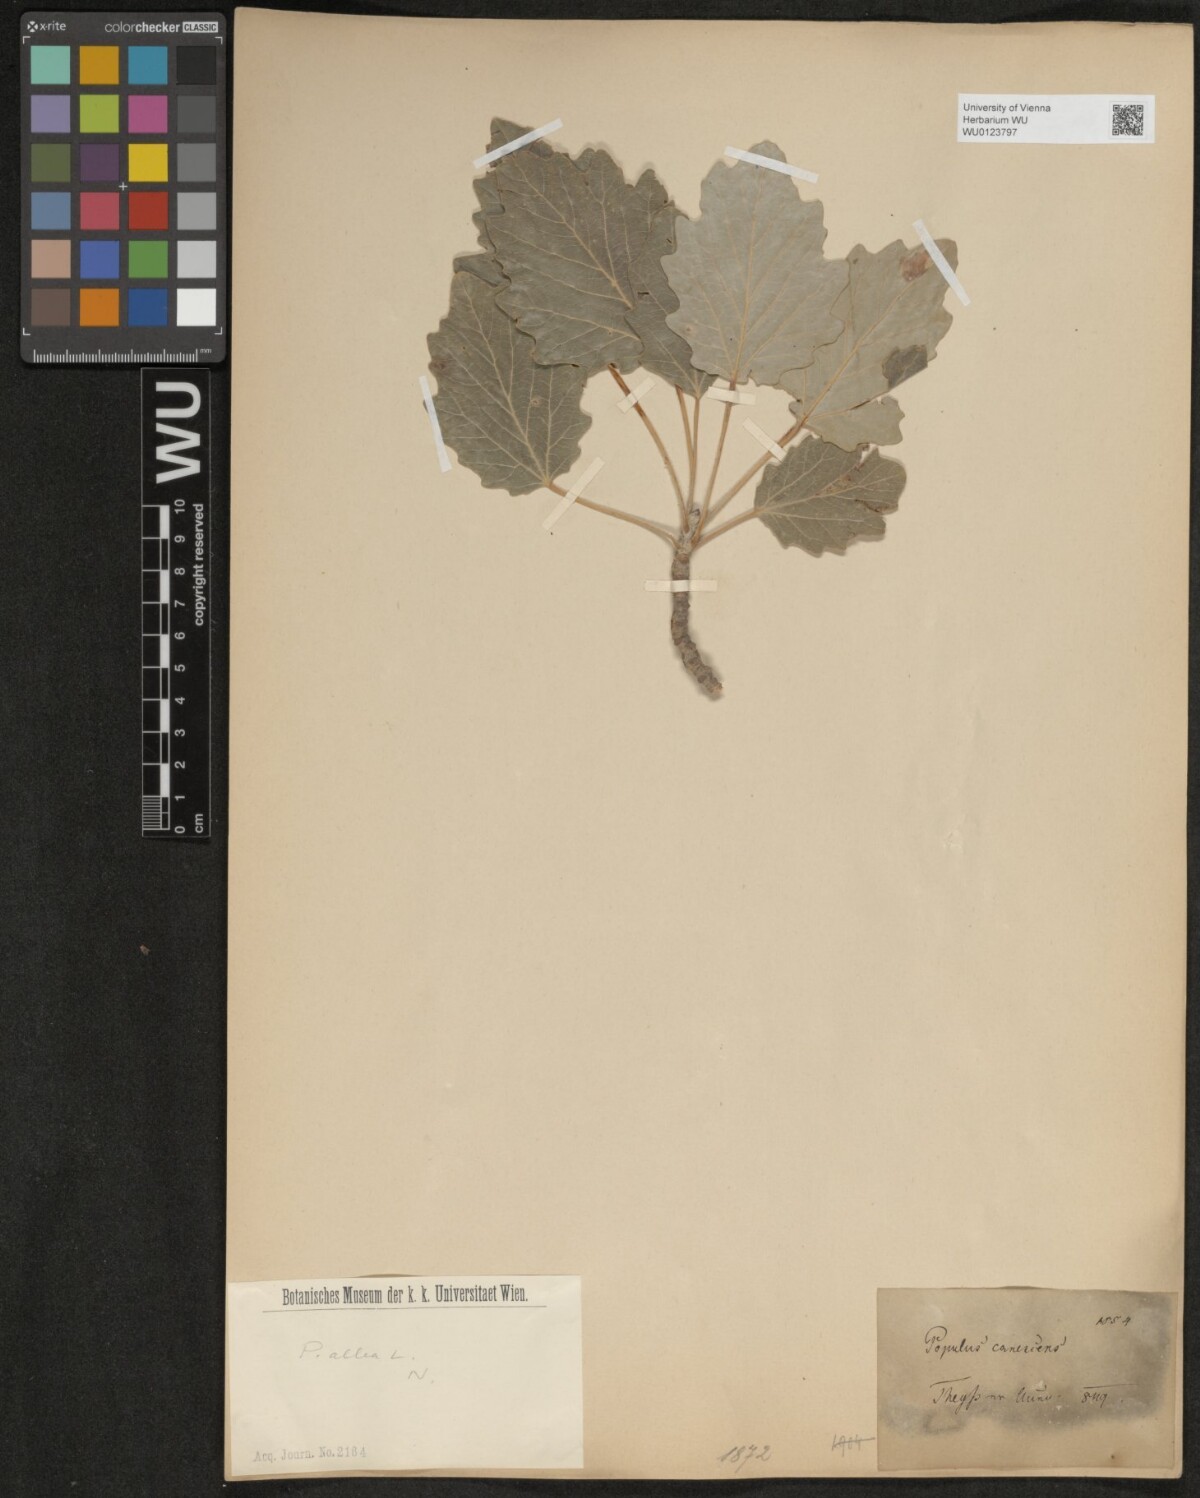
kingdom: Plantae
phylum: Tracheophyta
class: Magnoliopsida
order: Malpighiales
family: Salicaceae
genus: Populus
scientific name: Populus alba
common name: White poplar
